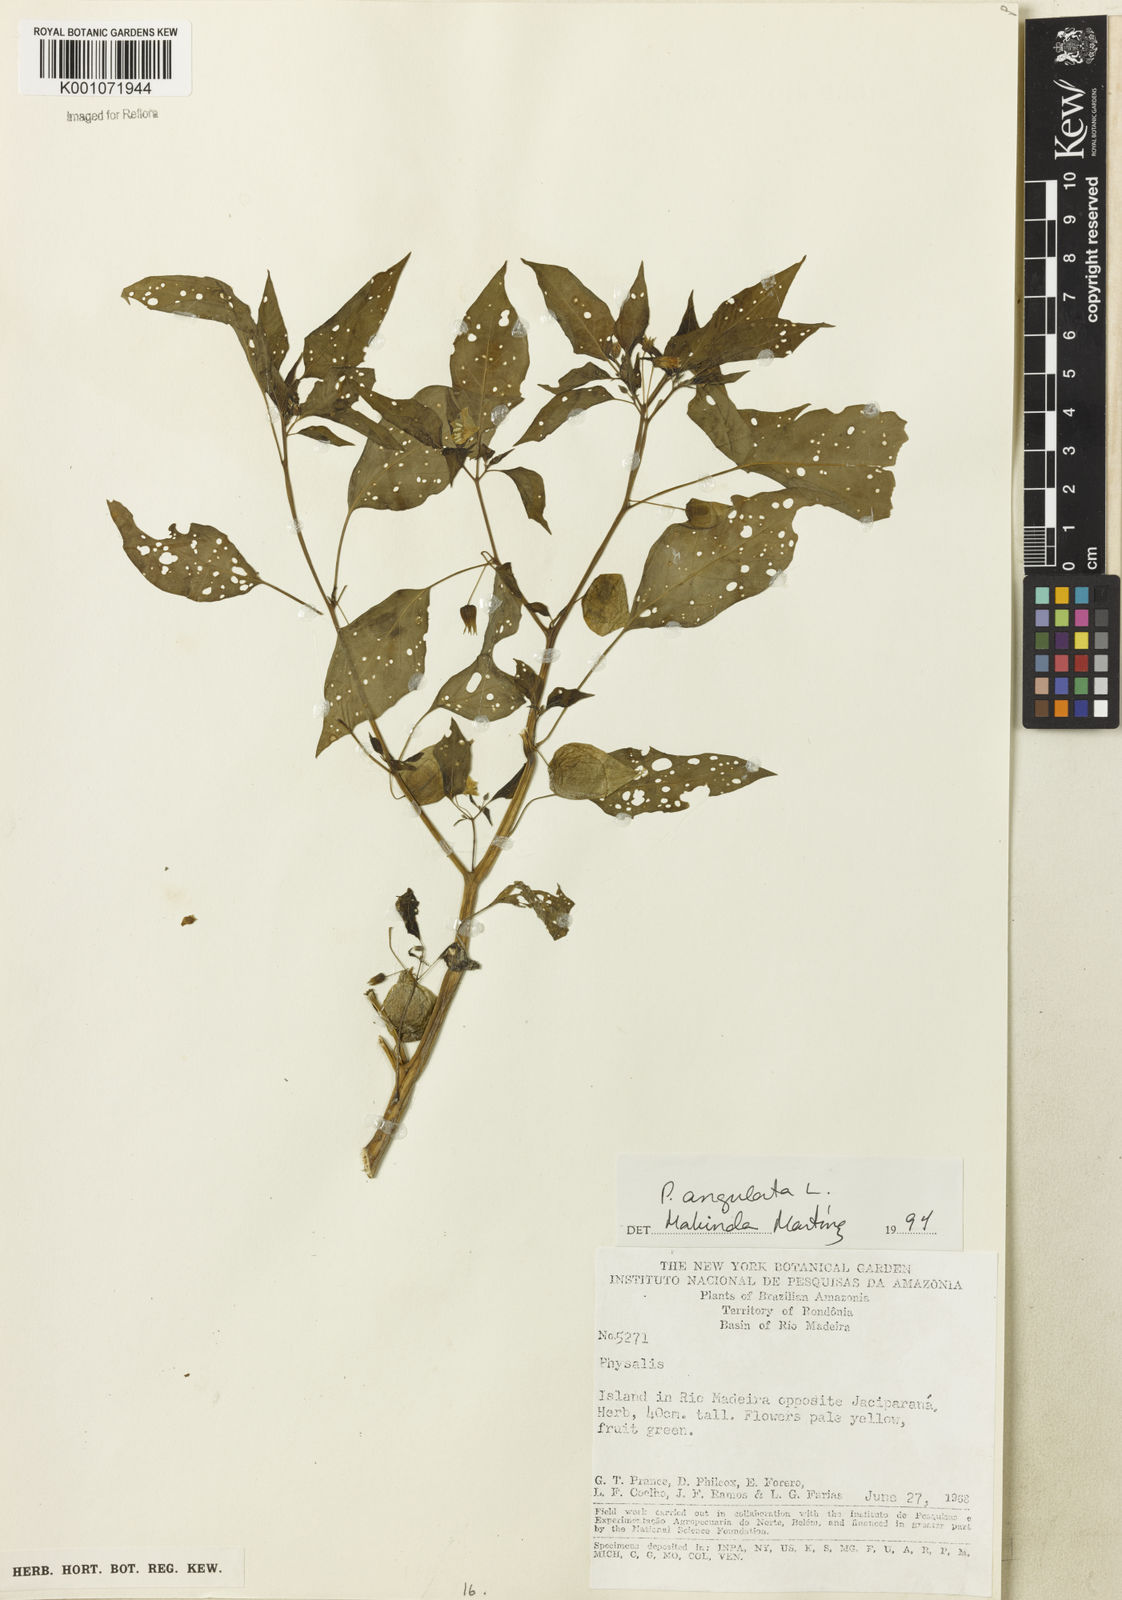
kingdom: Plantae
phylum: Tracheophyta
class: Magnoliopsida
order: Solanales
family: Solanaceae
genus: Physalis
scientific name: Physalis angulata
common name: Angular winter-cherry
